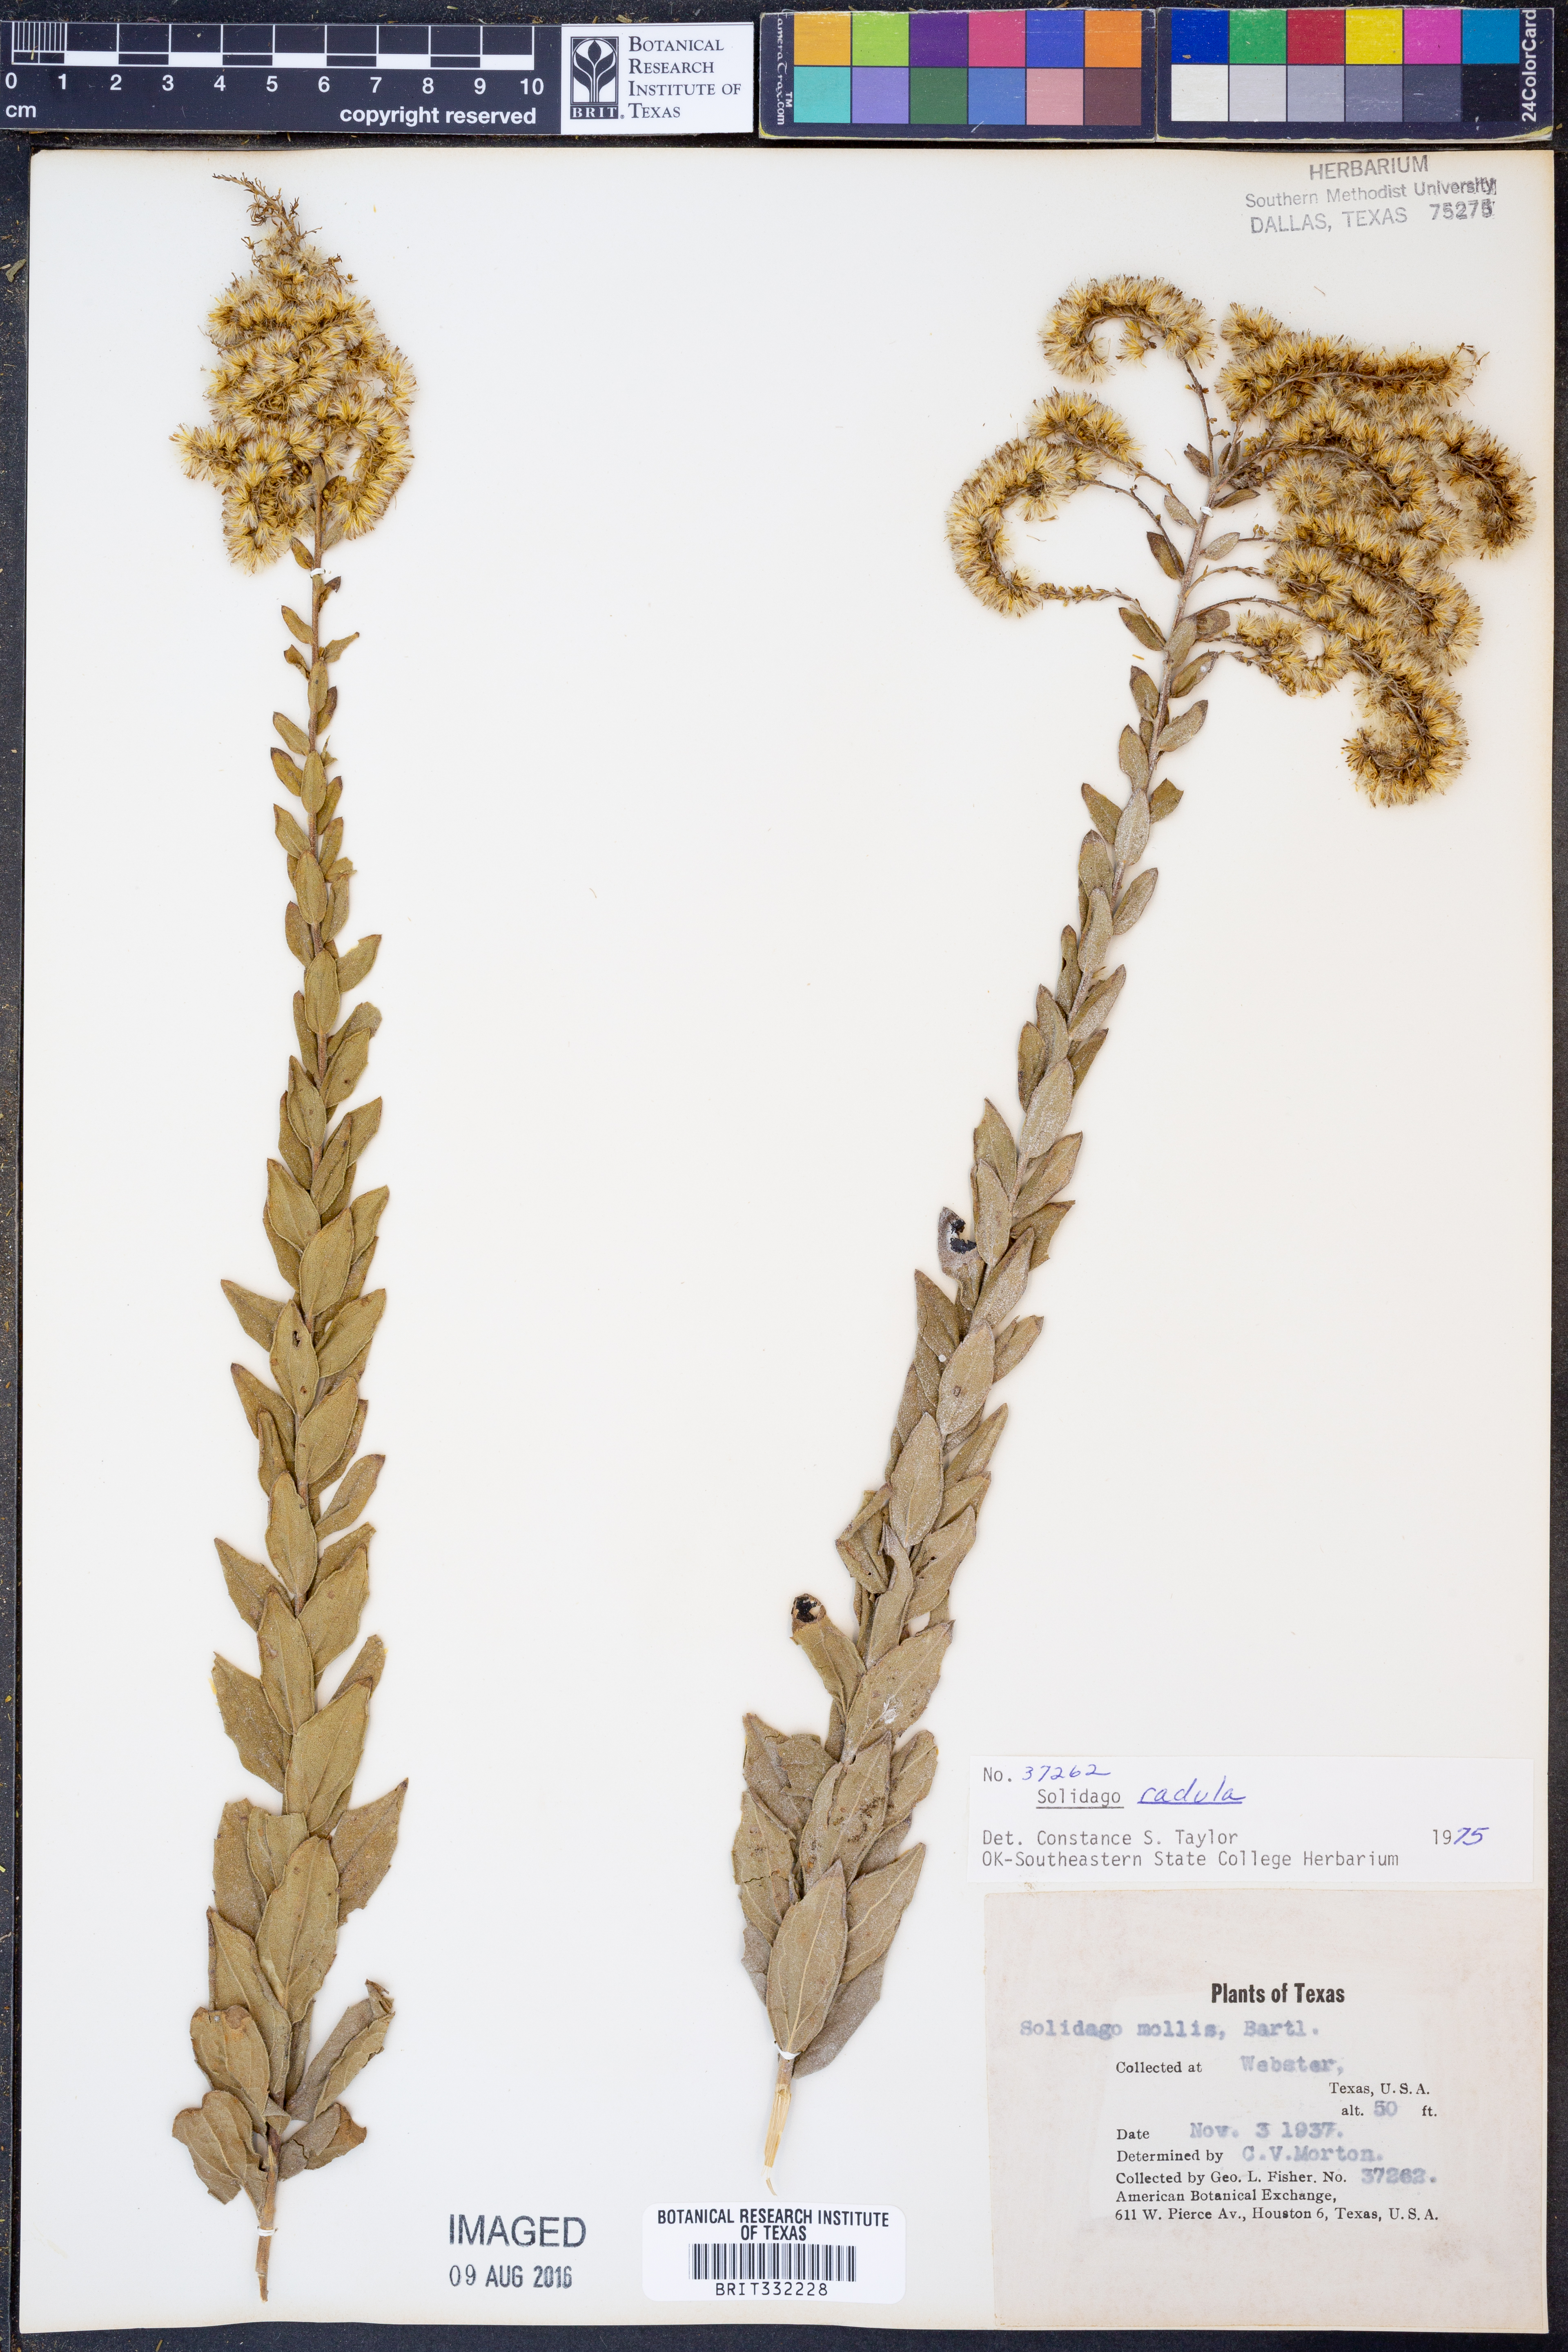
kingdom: Plantae
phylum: Tracheophyta
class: Magnoliopsida
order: Asterales
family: Asteraceae
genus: Solidago
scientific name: Solidago radula
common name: Western rough goldenrod
